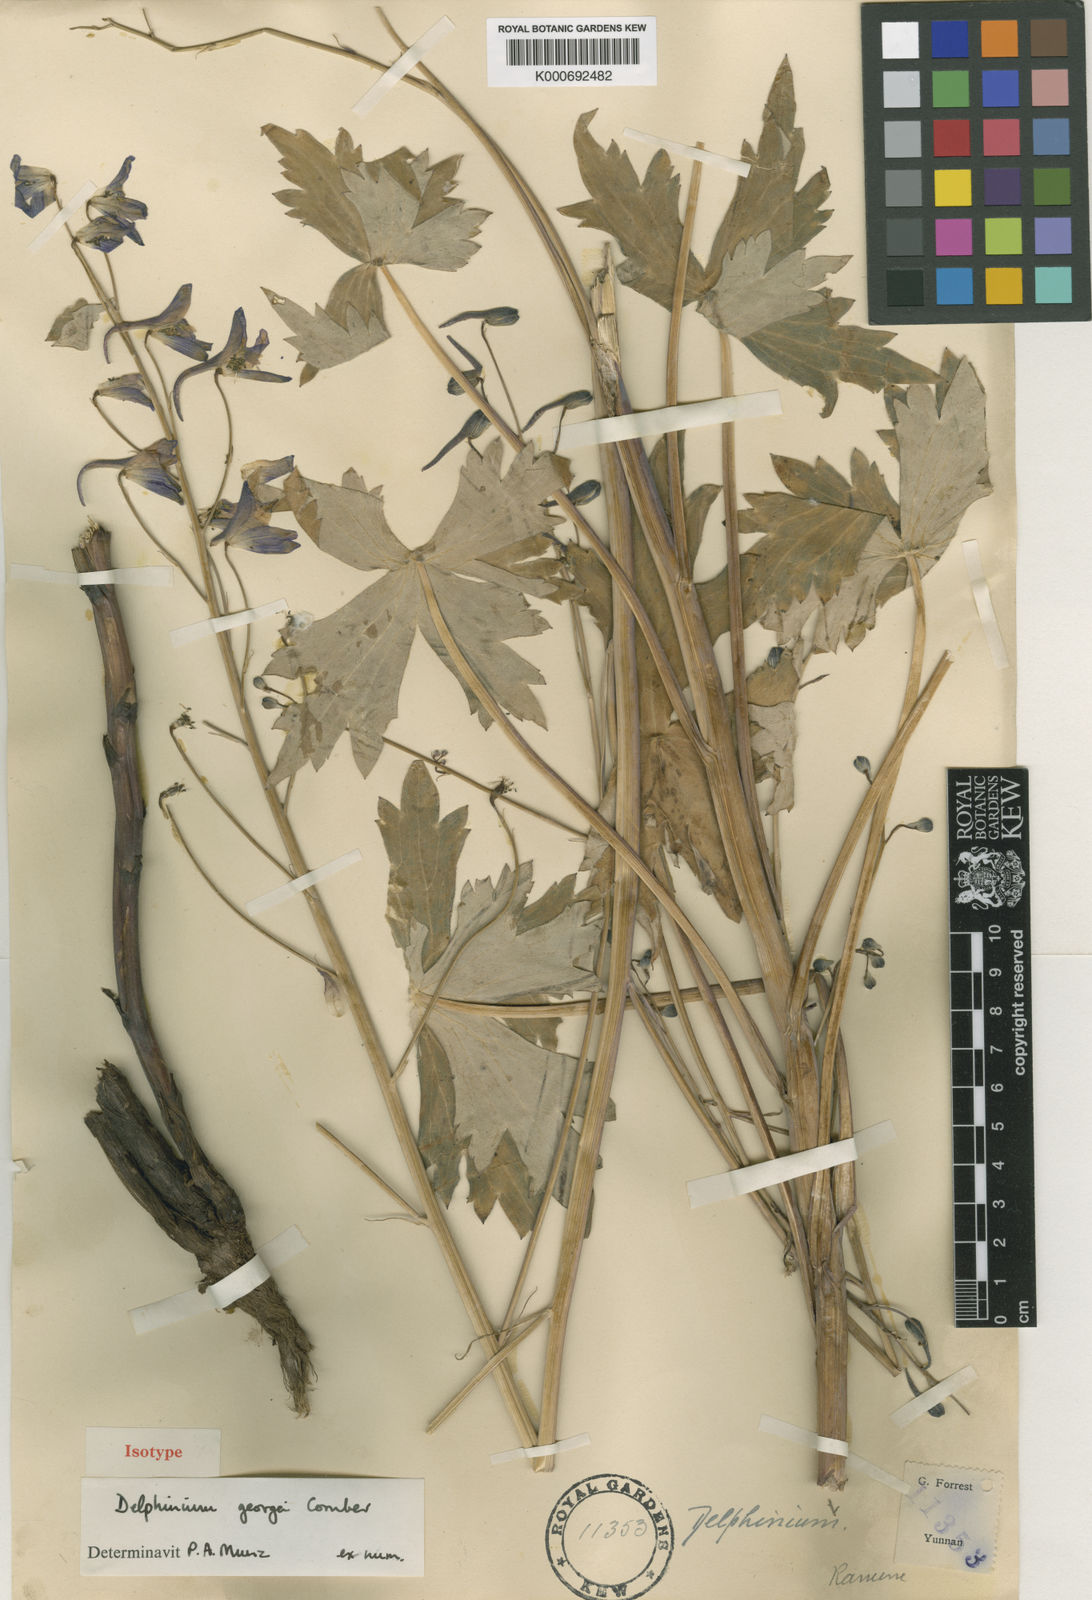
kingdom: Plantae
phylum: Tracheophyta
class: Magnoliopsida
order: Ranunculales
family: Ranunculaceae
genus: Delphinium
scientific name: Delphinium taliense
